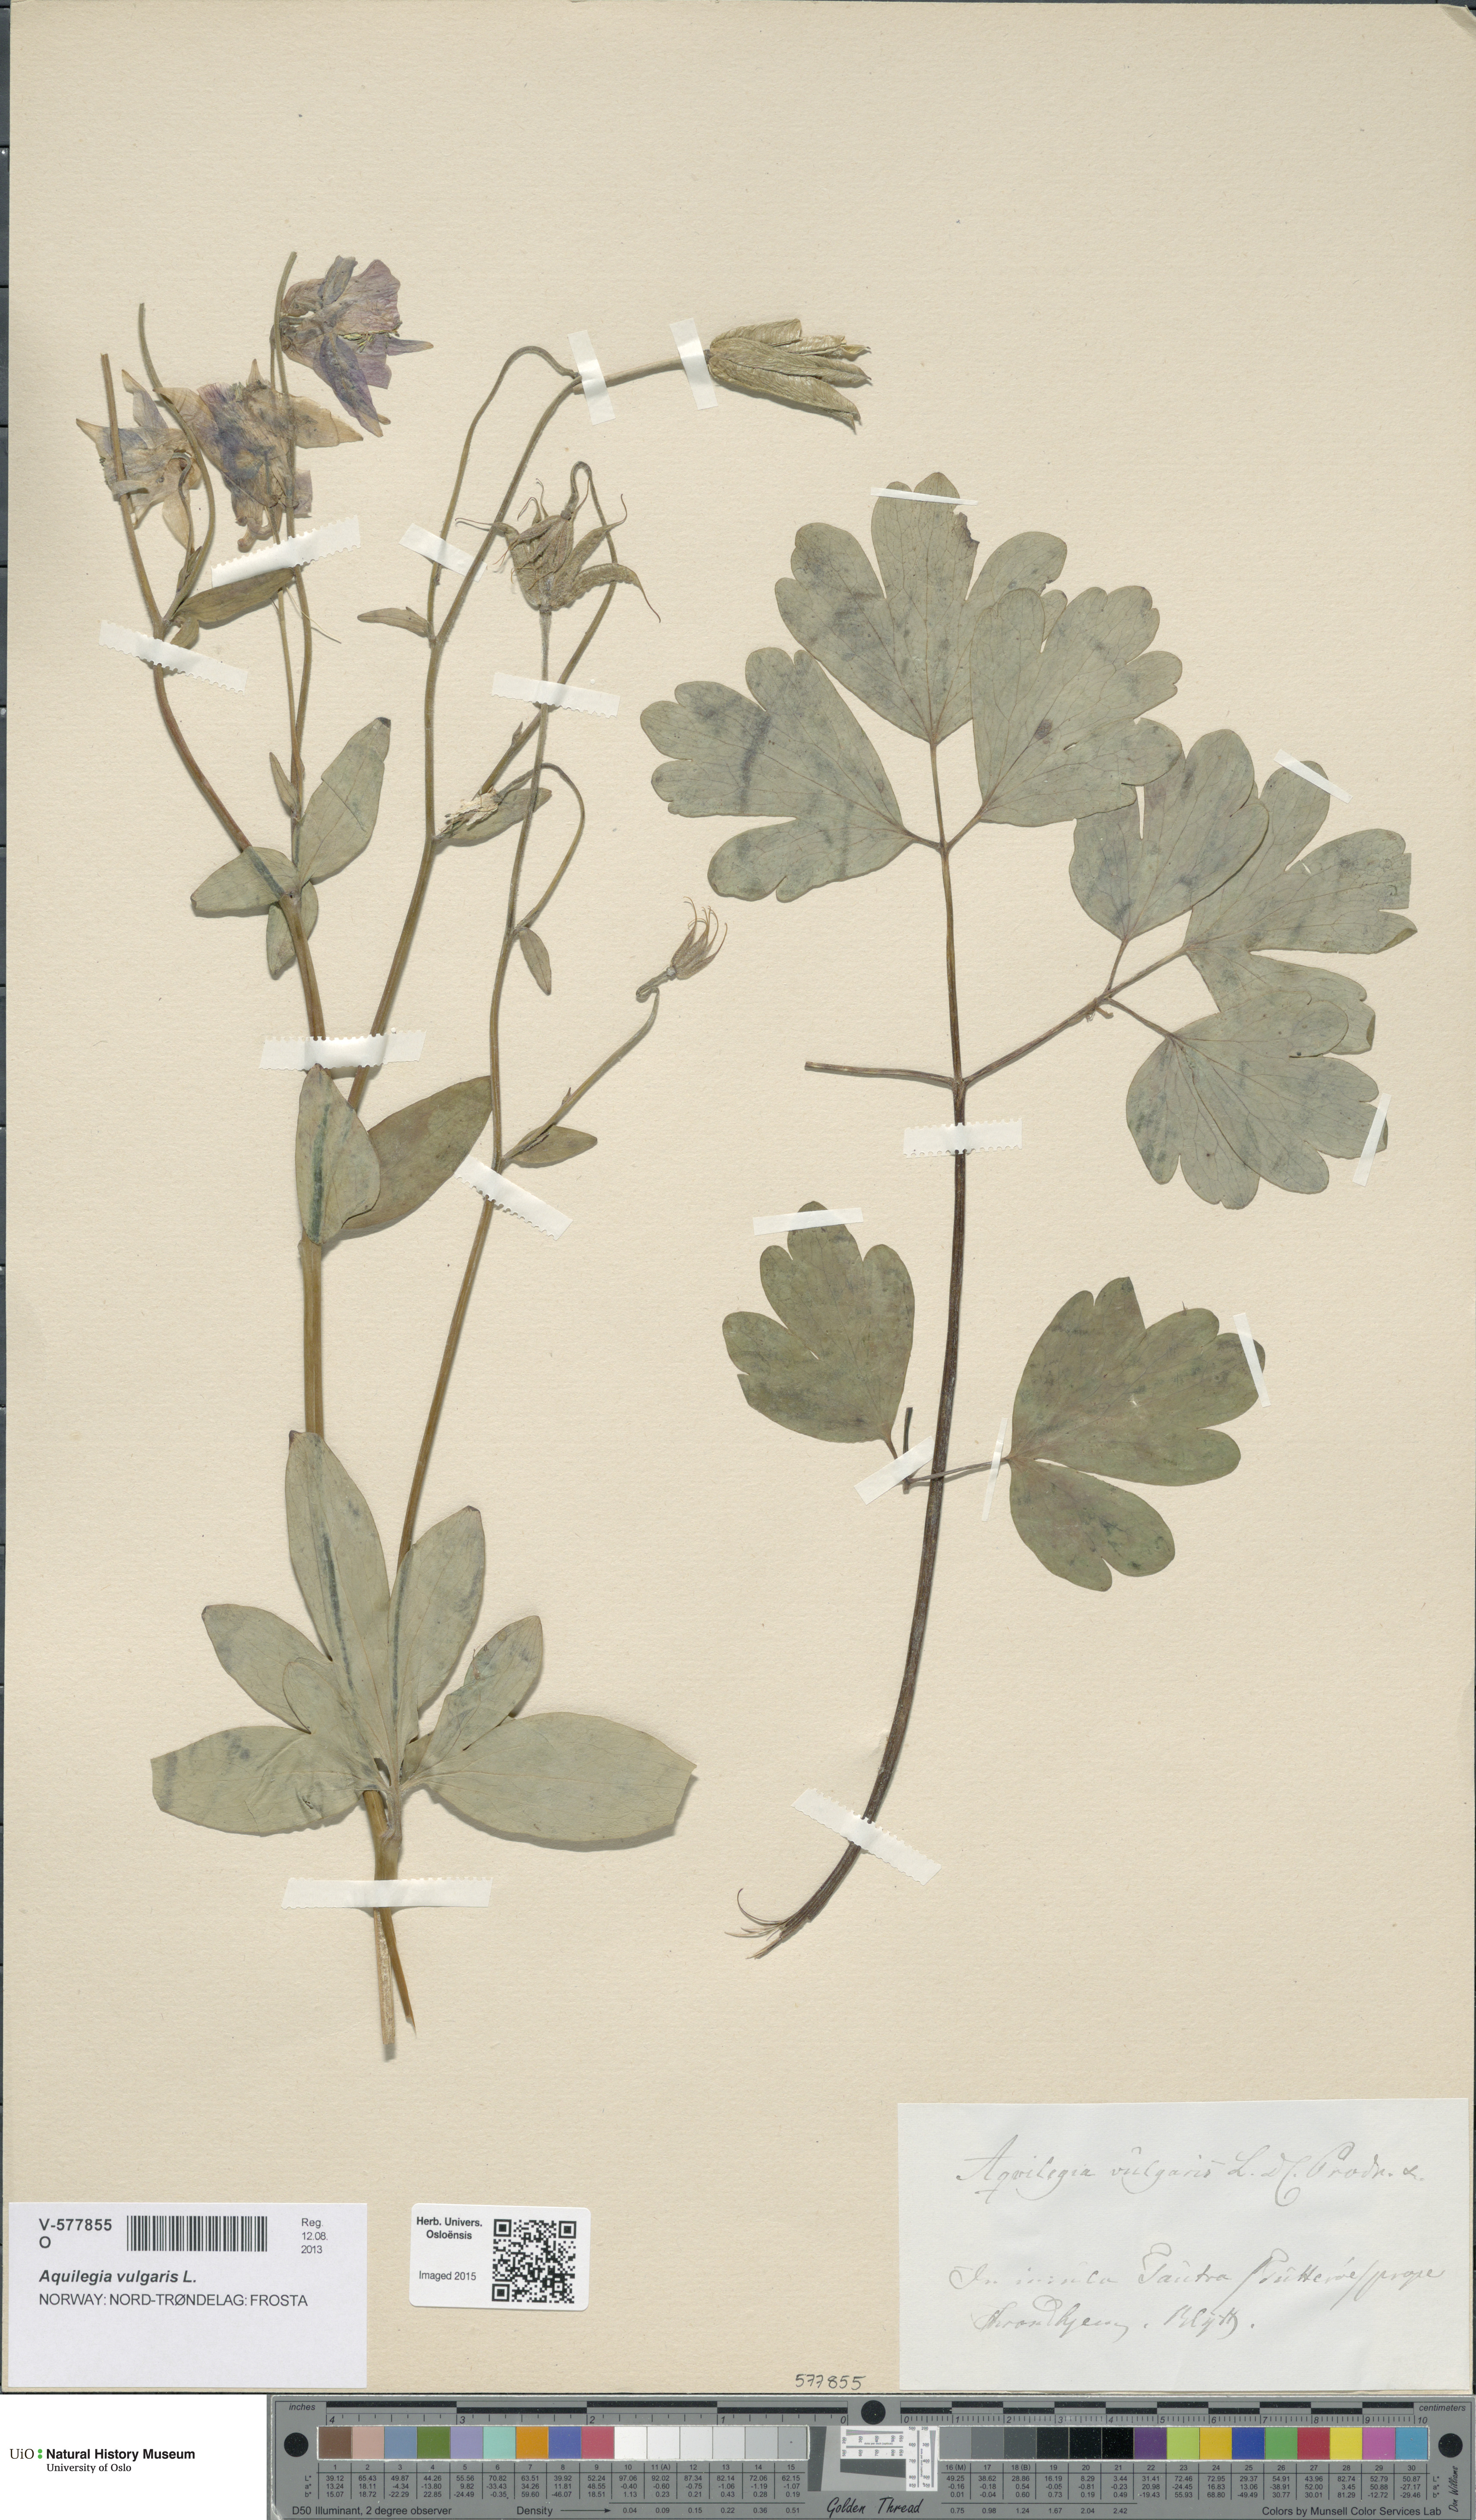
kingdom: Plantae
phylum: Tracheophyta
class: Magnoliopsida
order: Ranunculales
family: Ranunculaceae
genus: Aquilegia
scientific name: Aquilegia vulgaris
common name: Columbine
